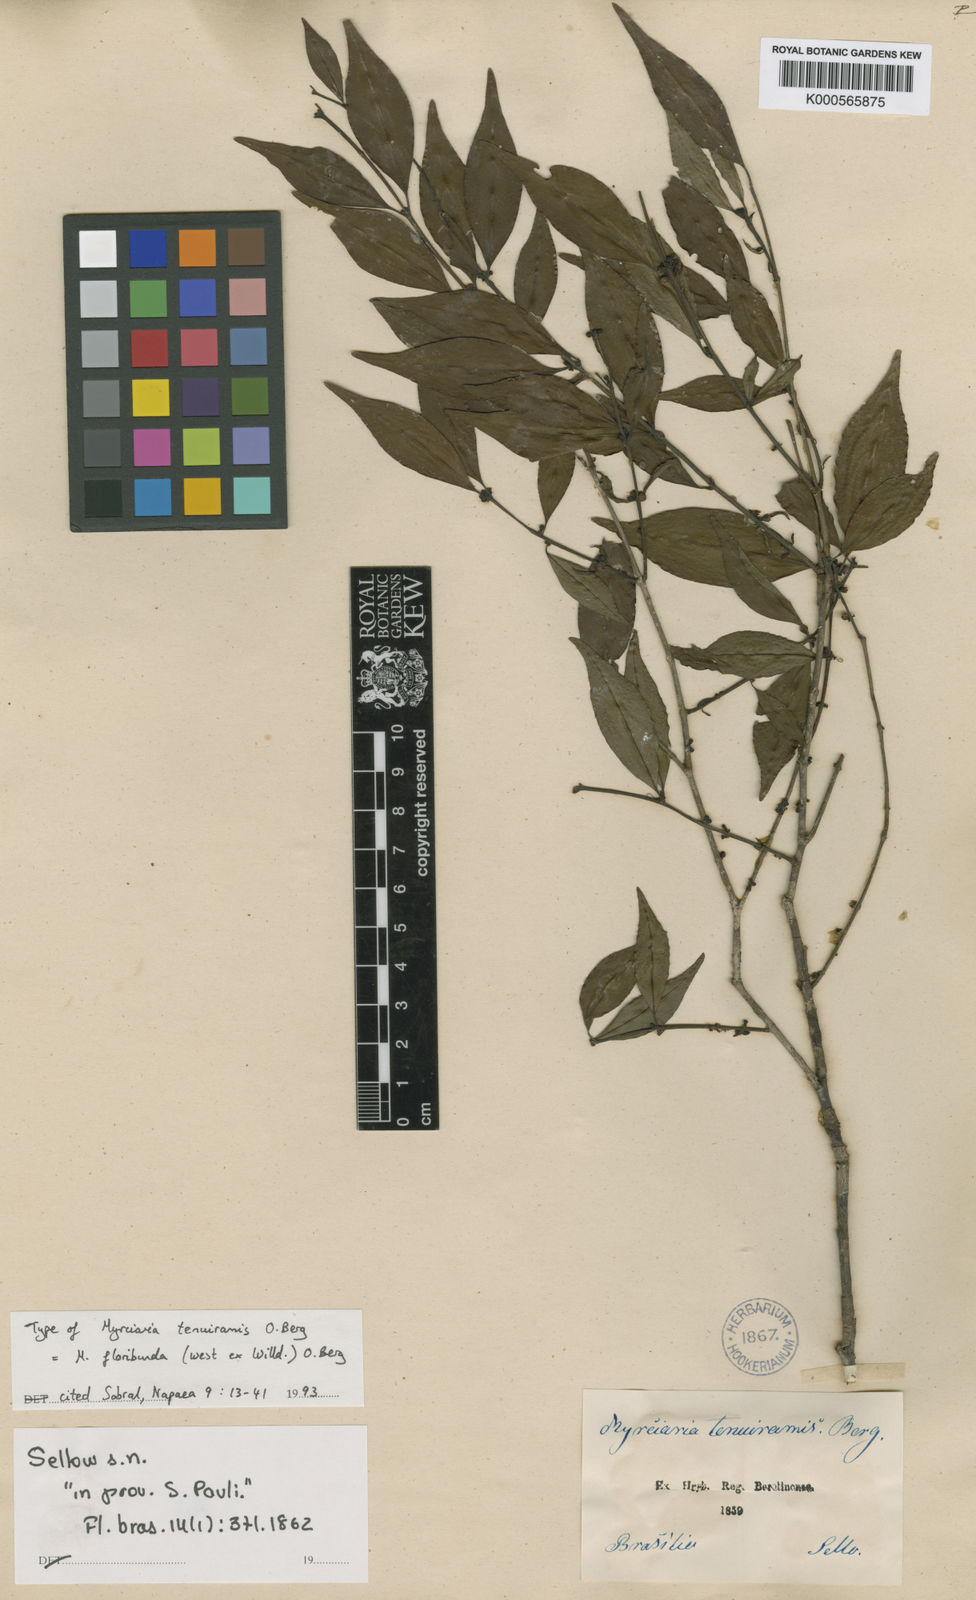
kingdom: Plantae
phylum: Tracheophyta
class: Magnoliopsida
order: Myrtales
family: Myrtaceae
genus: Myrciaria
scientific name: Myrciaria floribunda
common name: Guavaberry
